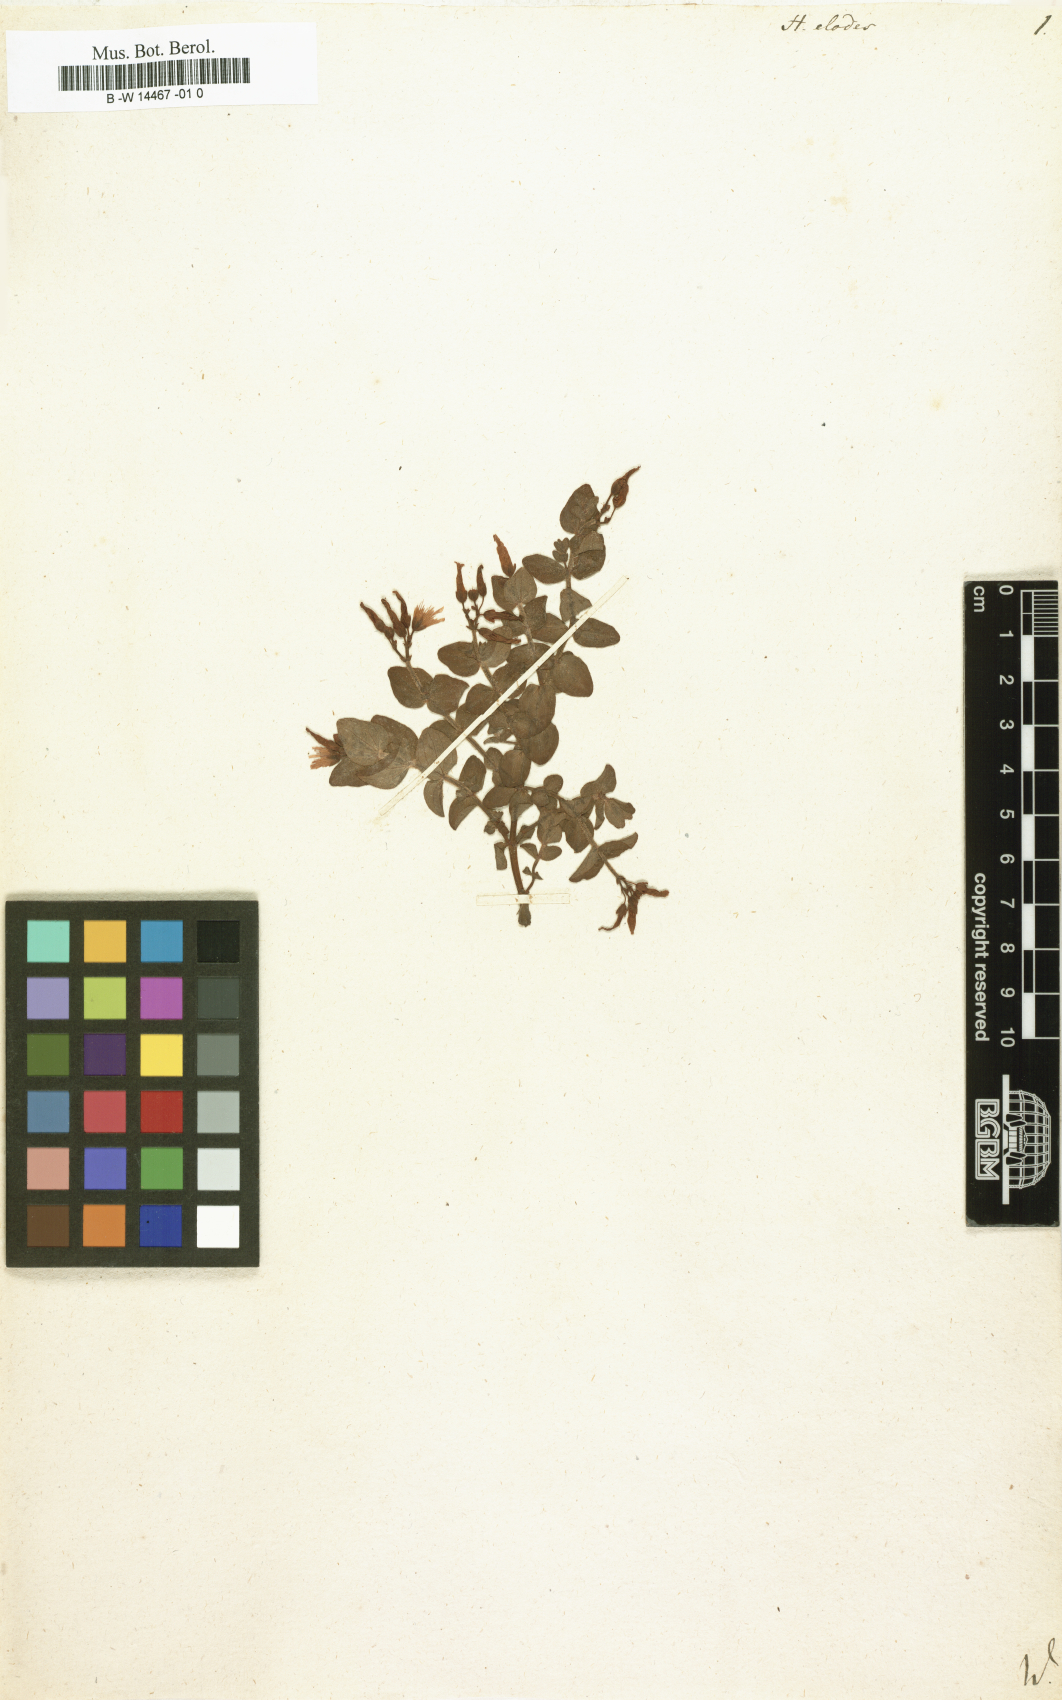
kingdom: Plantae
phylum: Tracheophyta
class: Magnoliopsida
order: Malpighiales
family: Hypericaceae
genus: Hypericum
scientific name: Hypericum elodes
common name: Marsh st. john's-wort
